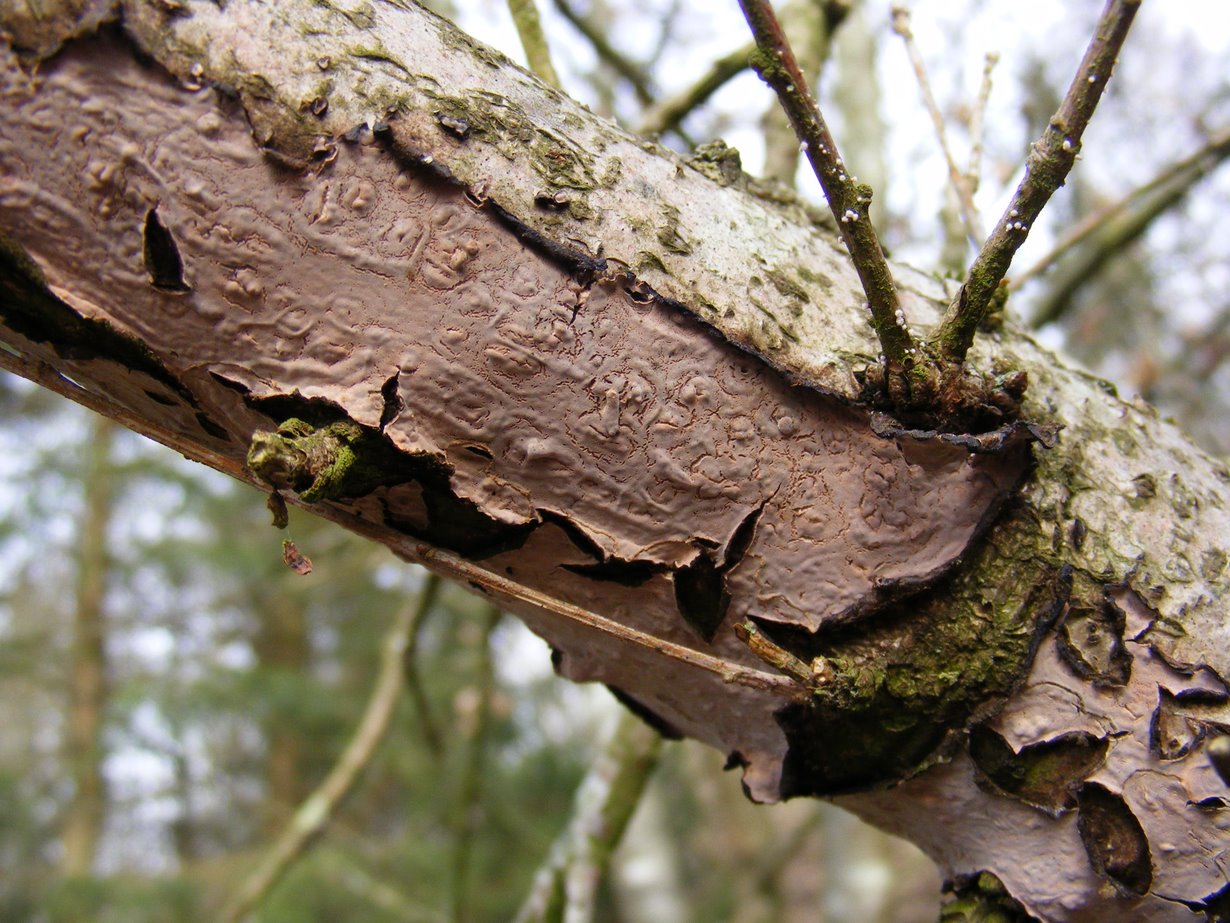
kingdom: Fungi
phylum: Basidiomycota
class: Agaricomycetes
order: Russulales
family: Peniophoraceae
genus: Peniophora
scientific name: Peniophora quercina
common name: ege-voksskind
